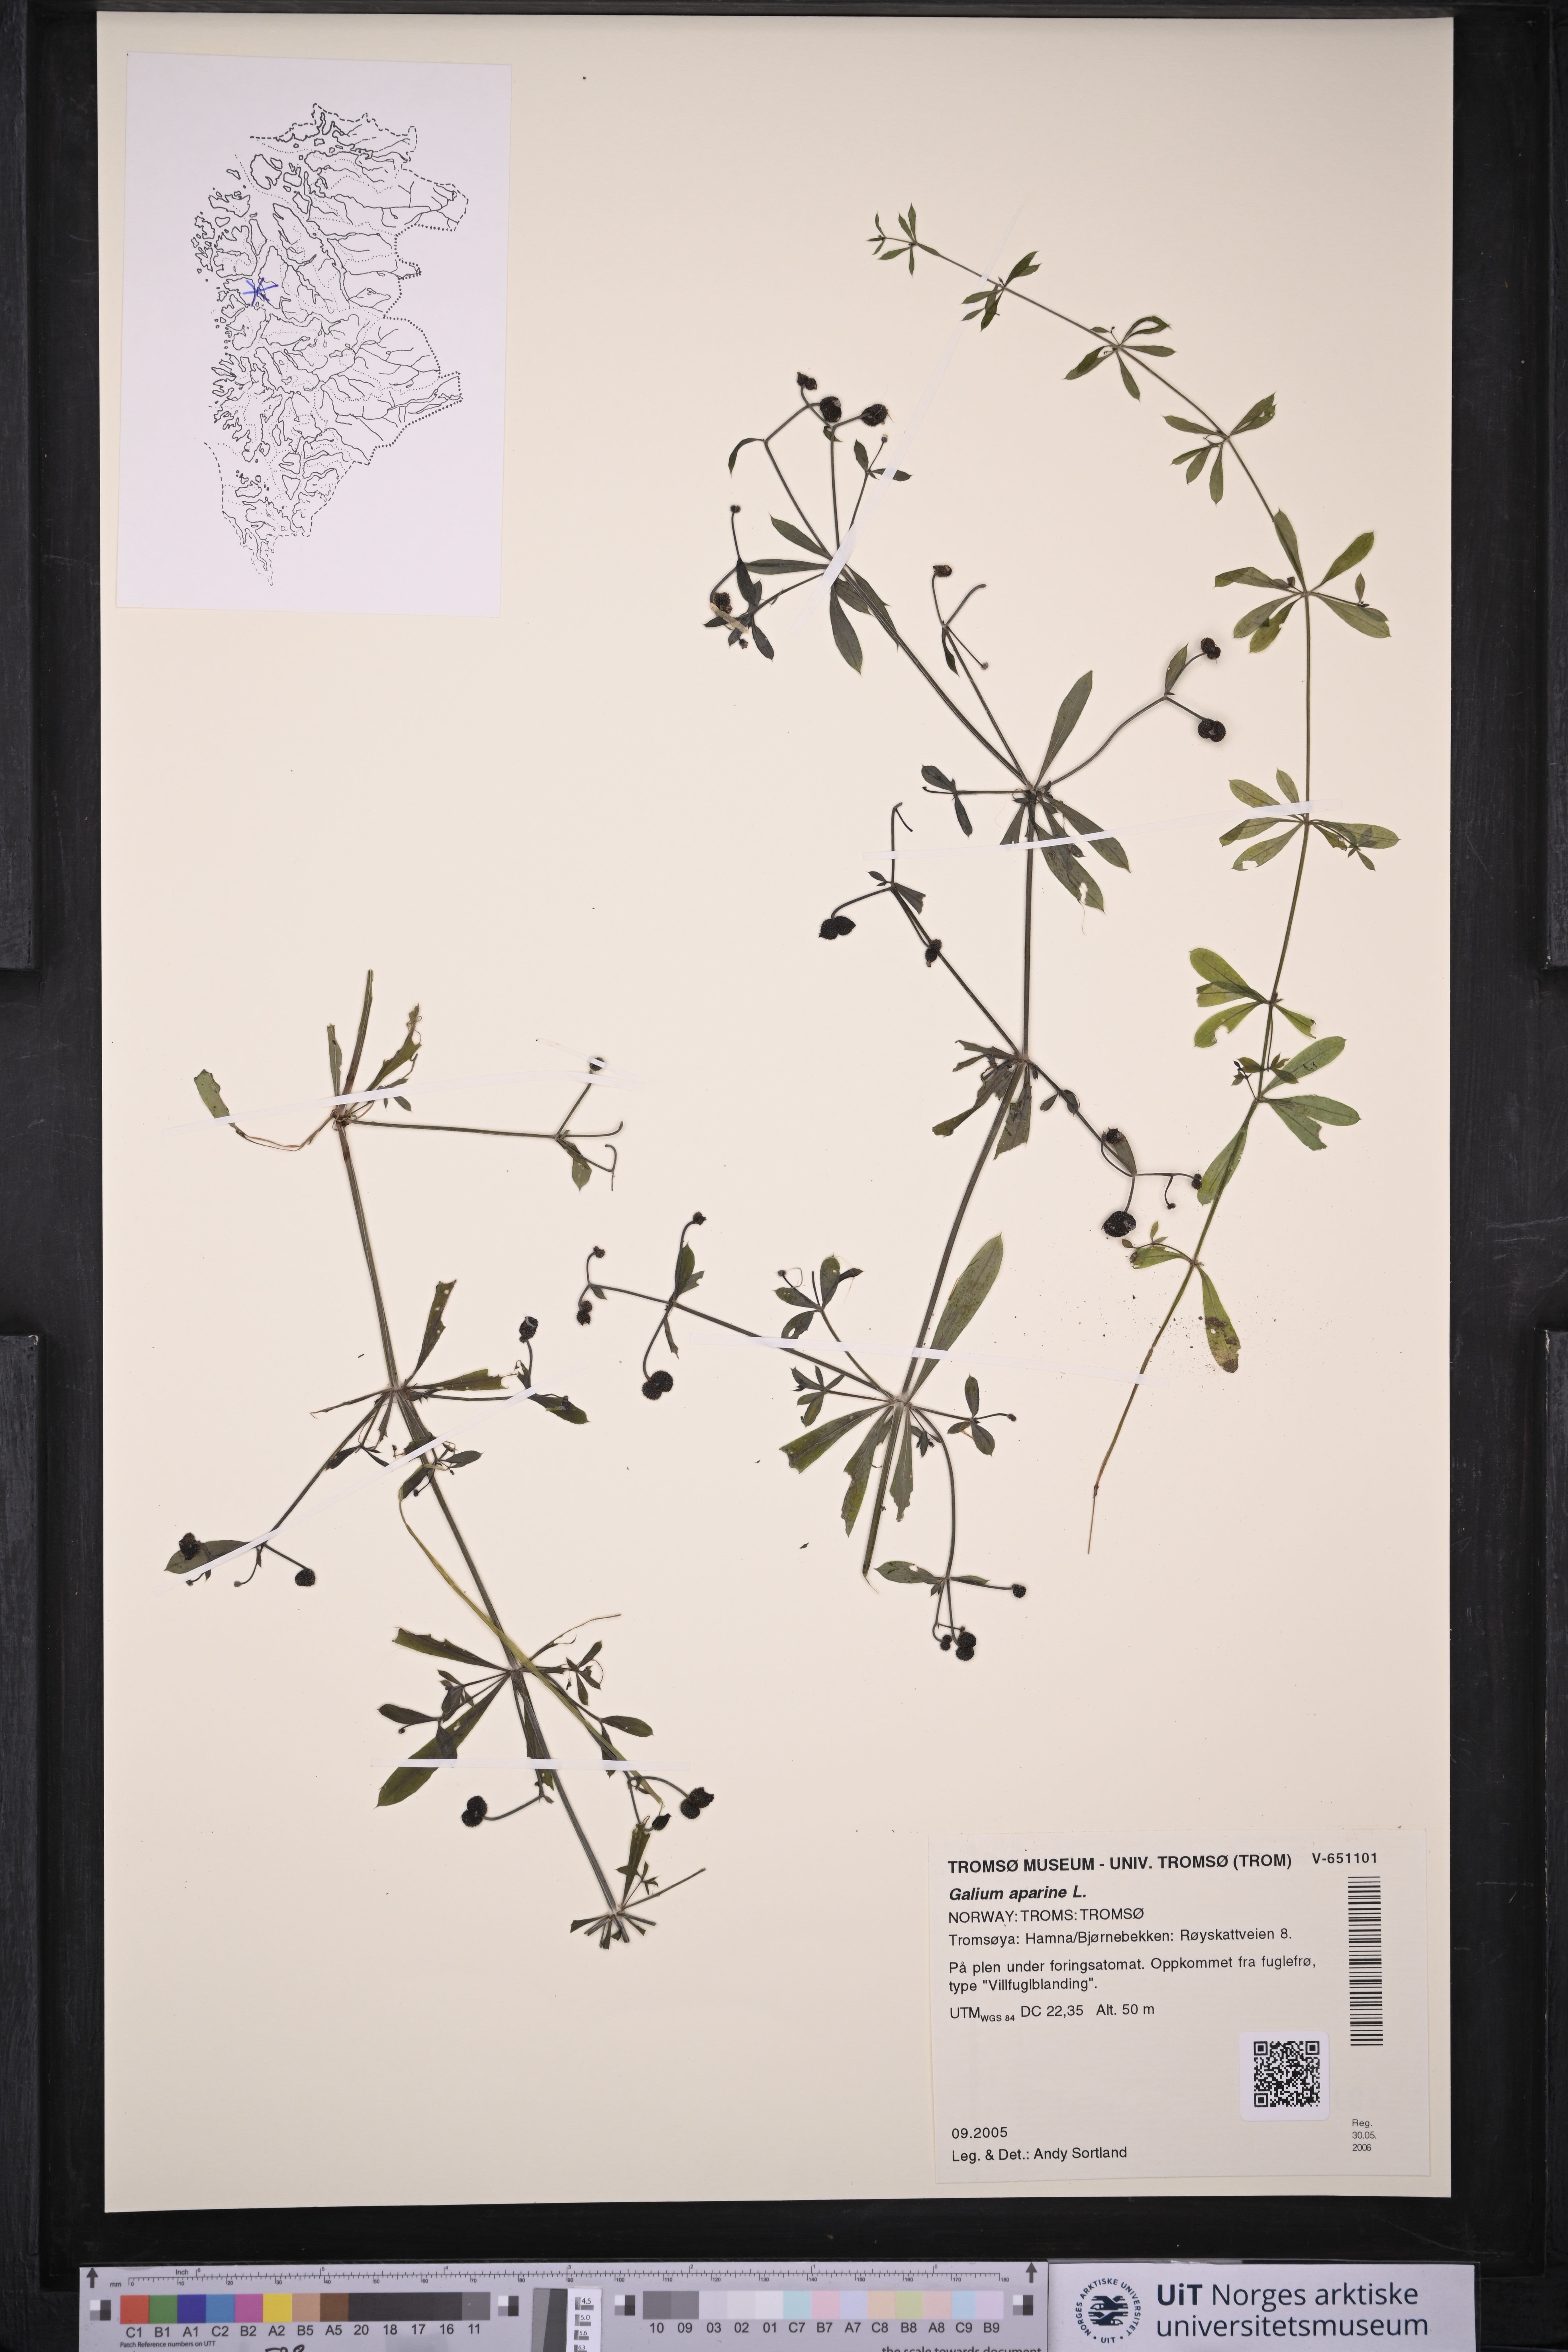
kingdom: Plantae
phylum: Tracheophyta
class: Magnoliopsida
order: Gentianales
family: Rubiaceae
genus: Galium
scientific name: Galium aparine
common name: Cleavers
